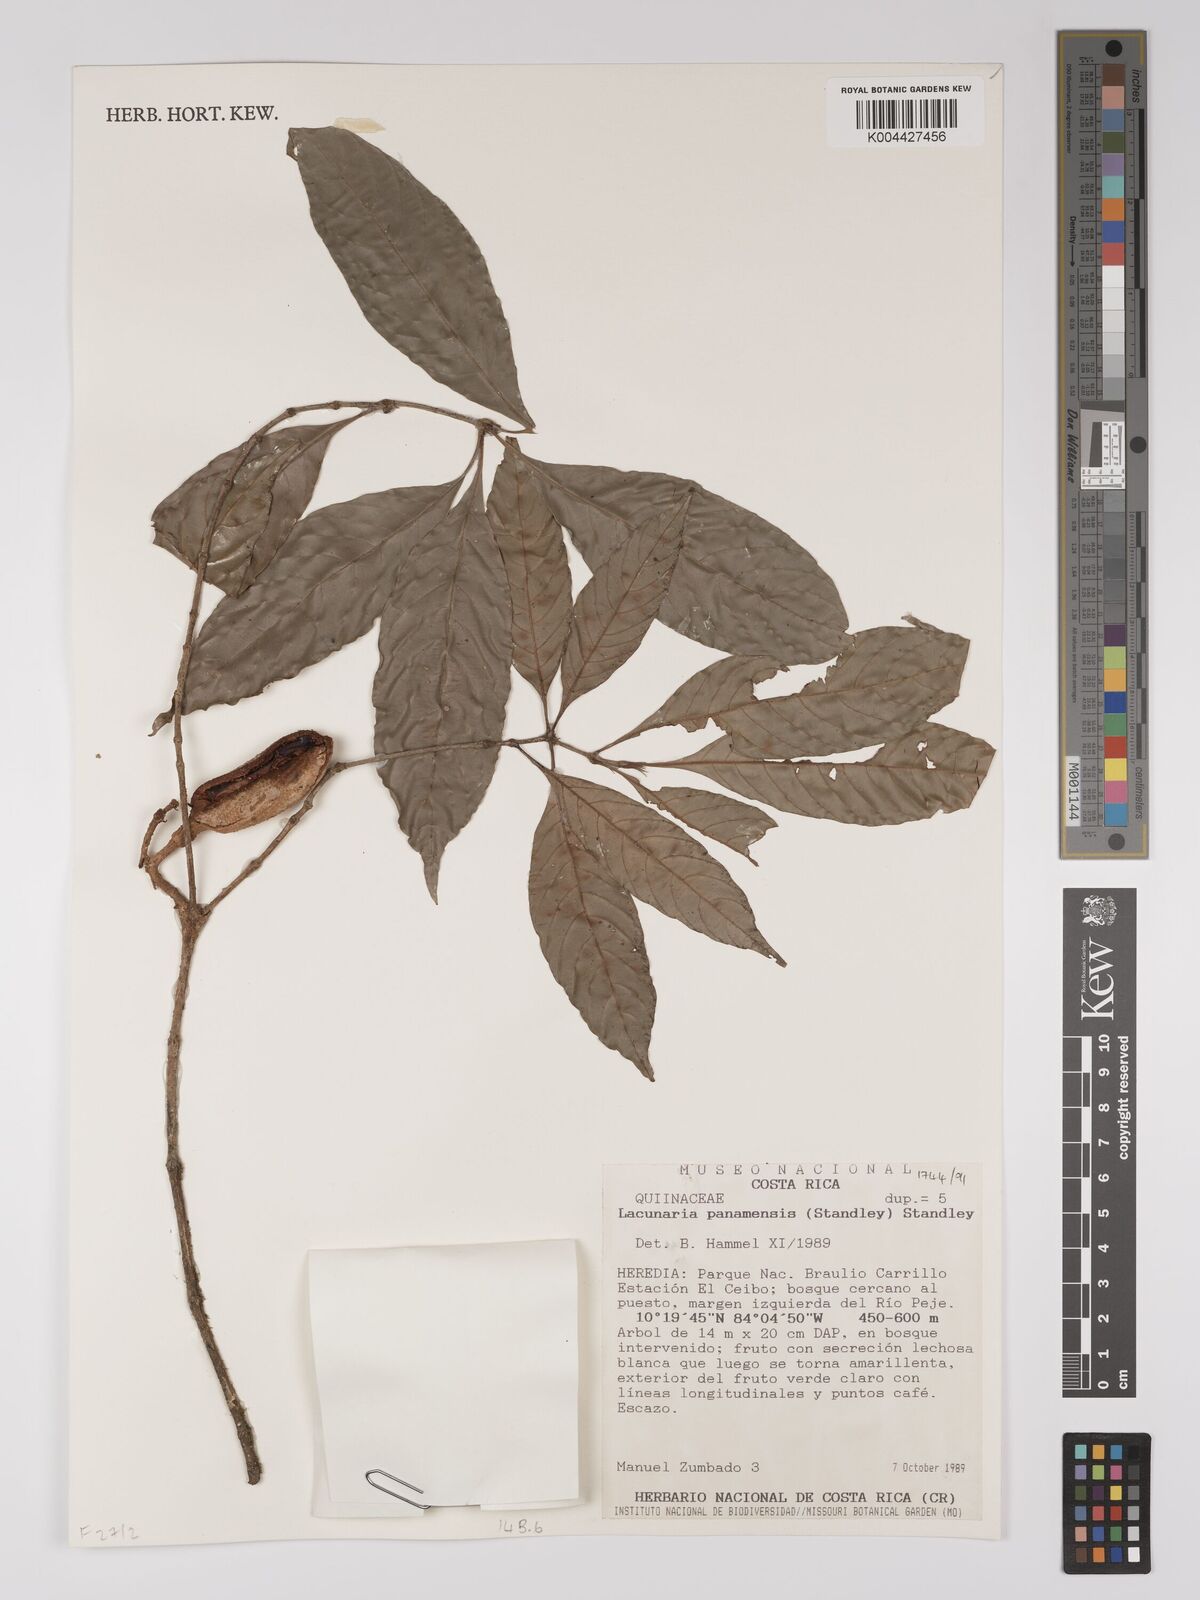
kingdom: Plantae
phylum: Tracheophyta
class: Magnoliopsida
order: Malpighiales
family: Ochnaceae
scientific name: Ochnaceae
